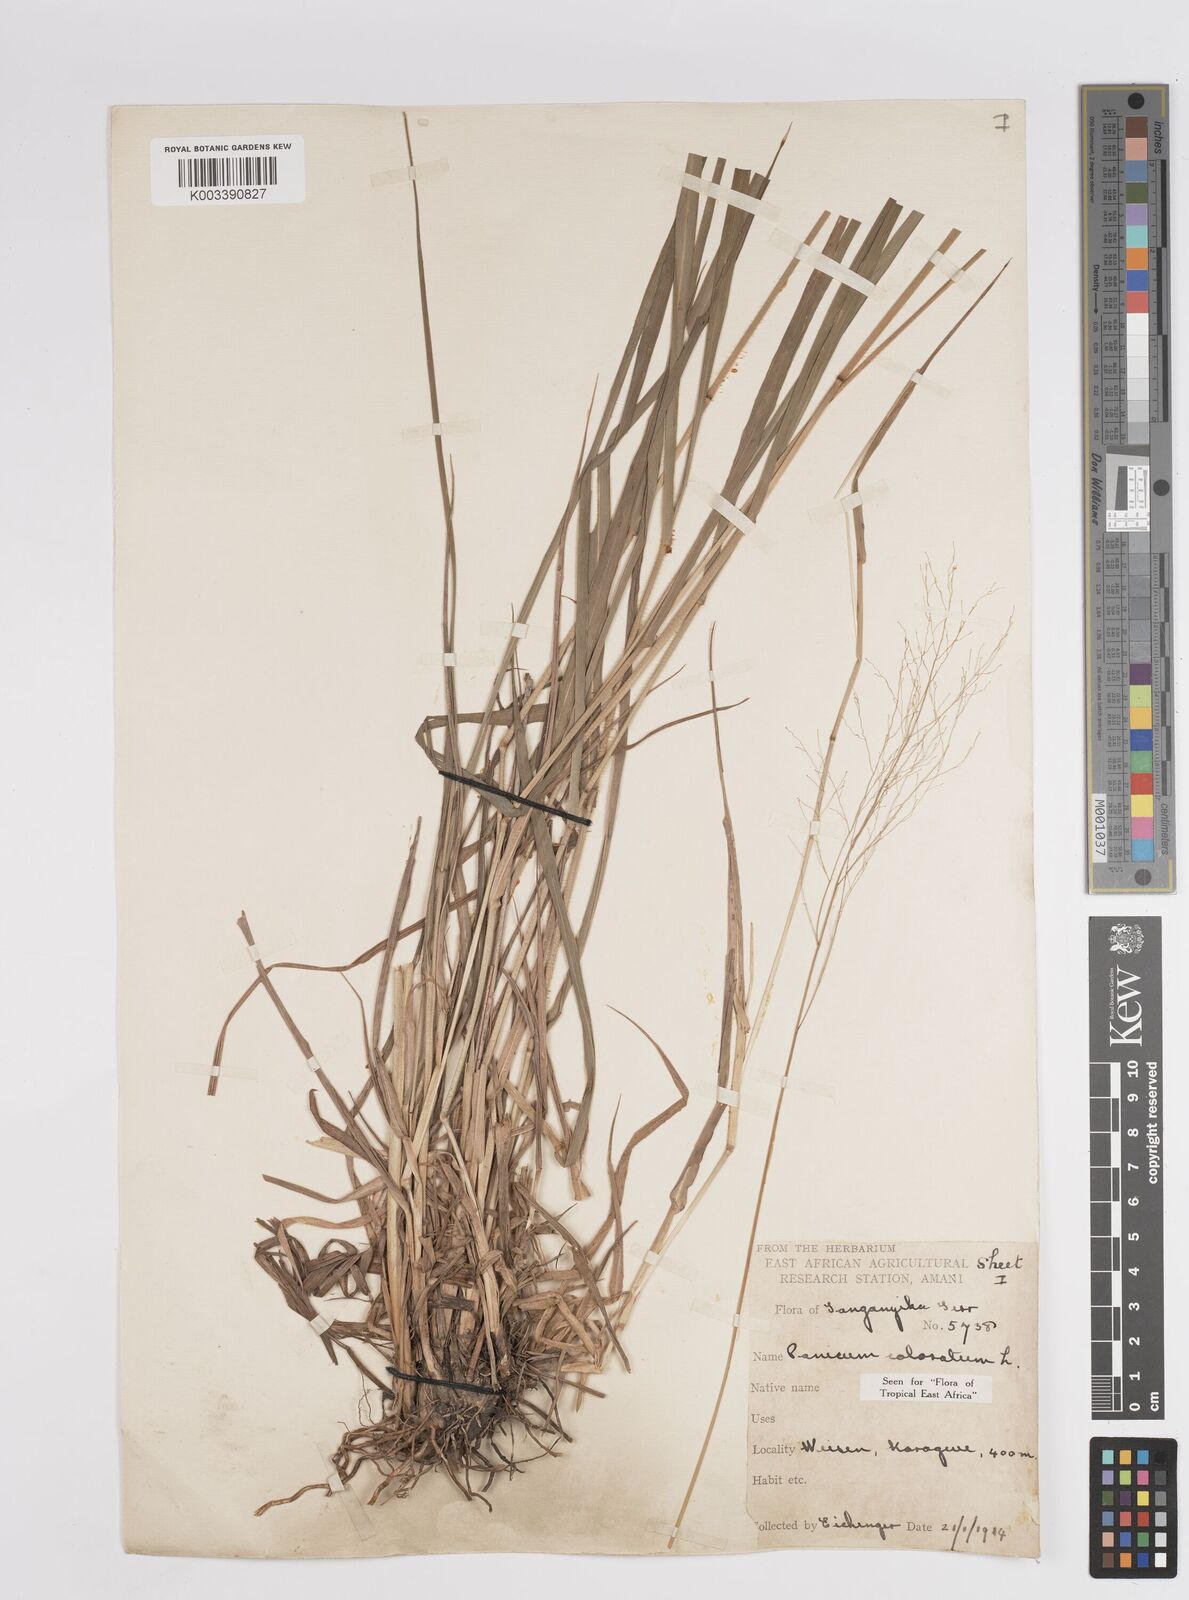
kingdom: Plantae
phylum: Tracheophyta
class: Liliopsida
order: Poales
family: Poaceae
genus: Panicum
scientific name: Panicum coloratum
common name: Kleingrass
